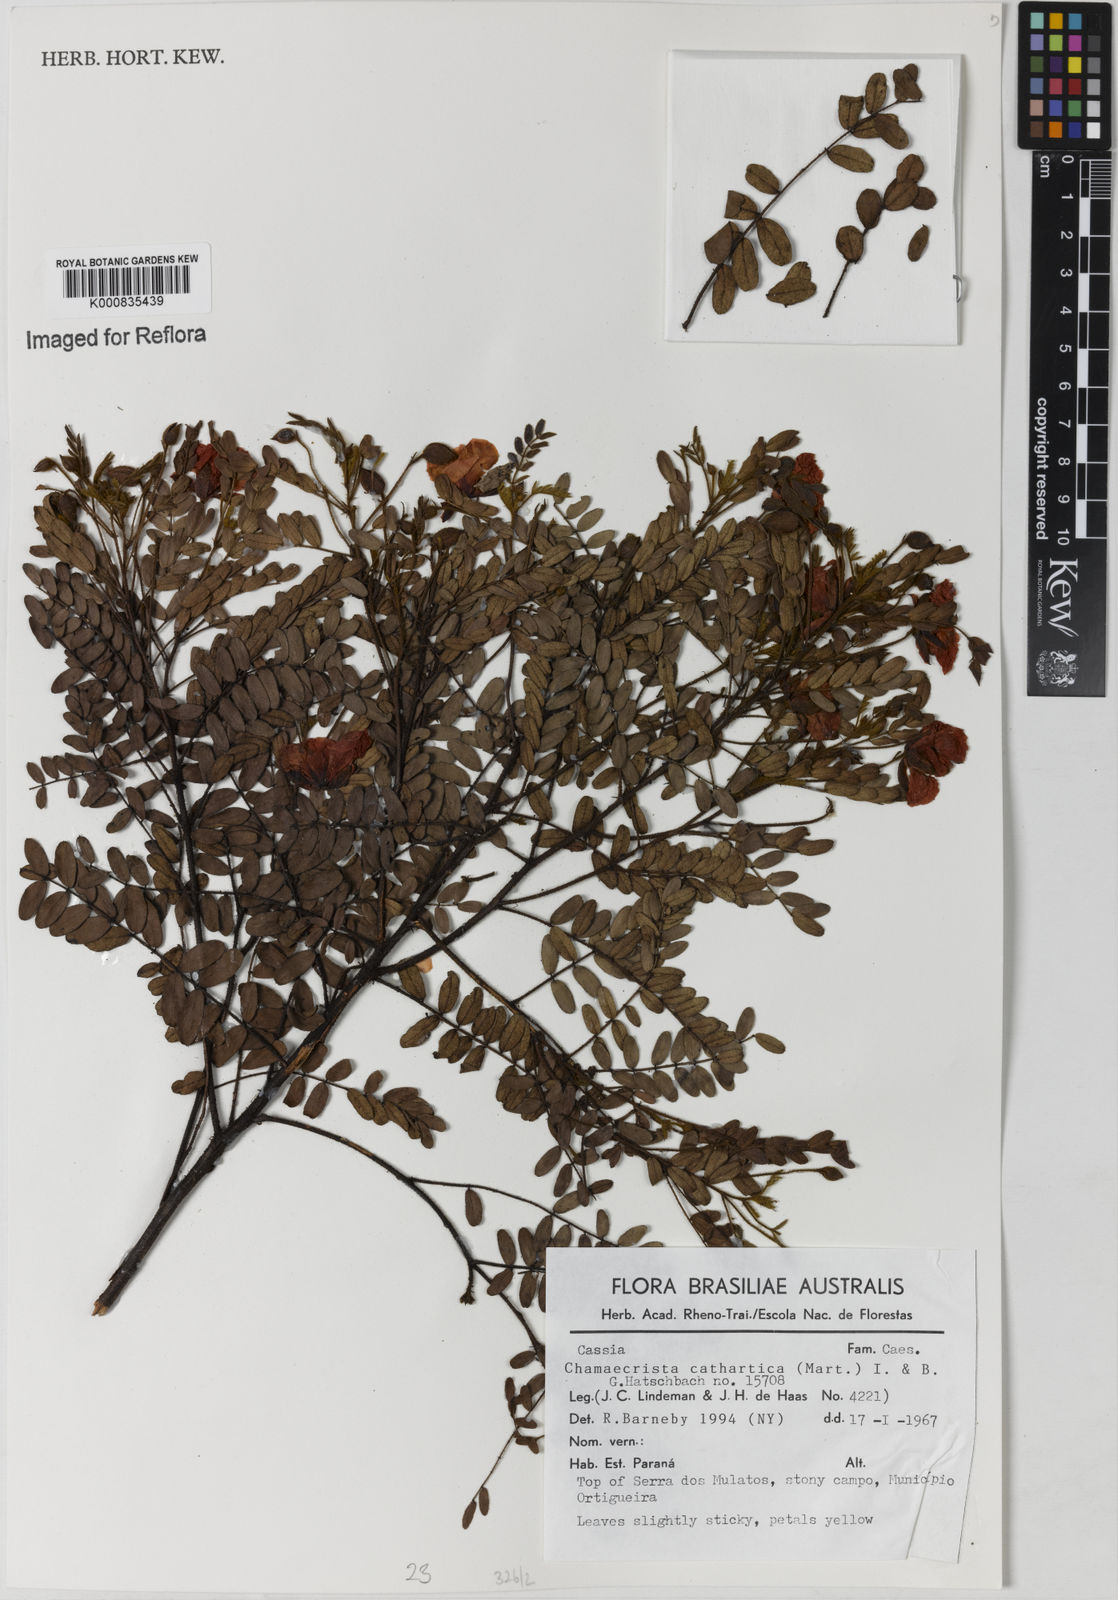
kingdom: Plantae
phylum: Tracheophyta
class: Magnoliopsida
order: Fabales
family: Fabaceae
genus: Chamaecrista
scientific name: Chamaecrista cathartica
